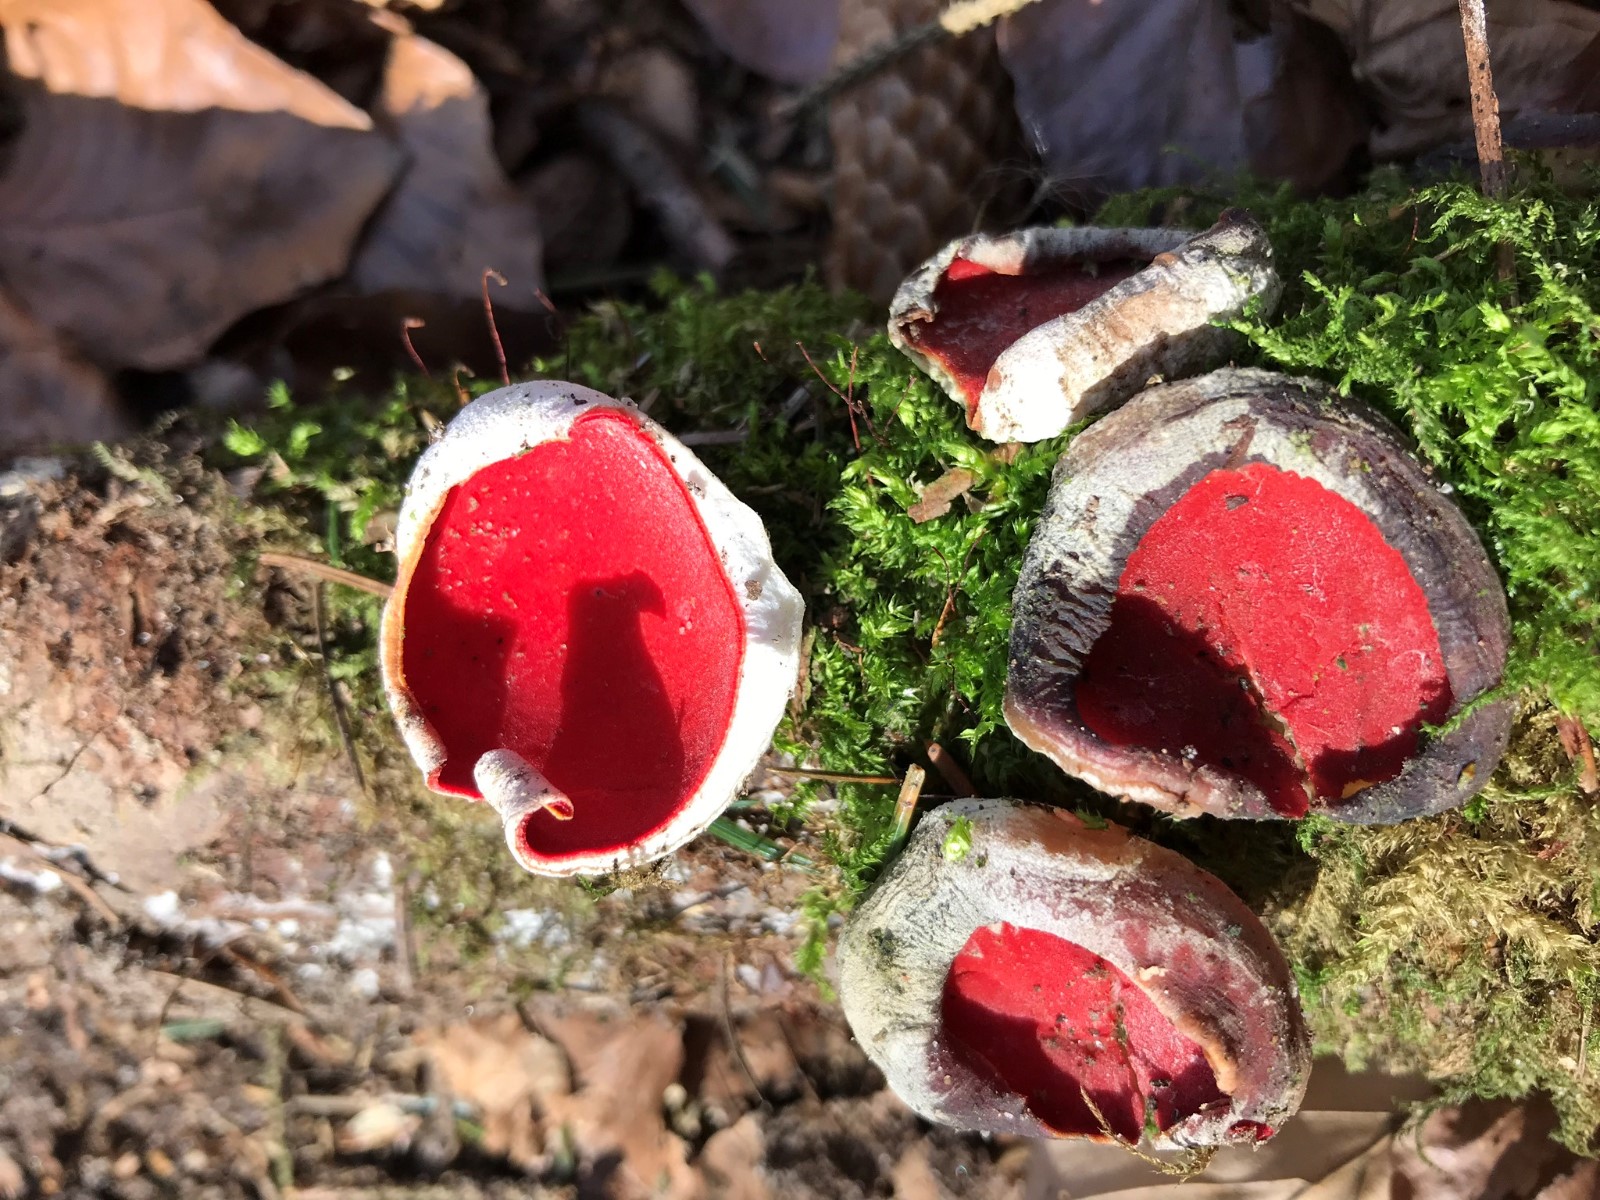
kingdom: Fungi
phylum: Ascomycota
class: Pezizomycetes
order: Pezizales
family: Sarcoscyphaceae
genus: Sarcoscypha
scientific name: Sarcoscypha austriaca
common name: krølhåret pragtbæger
